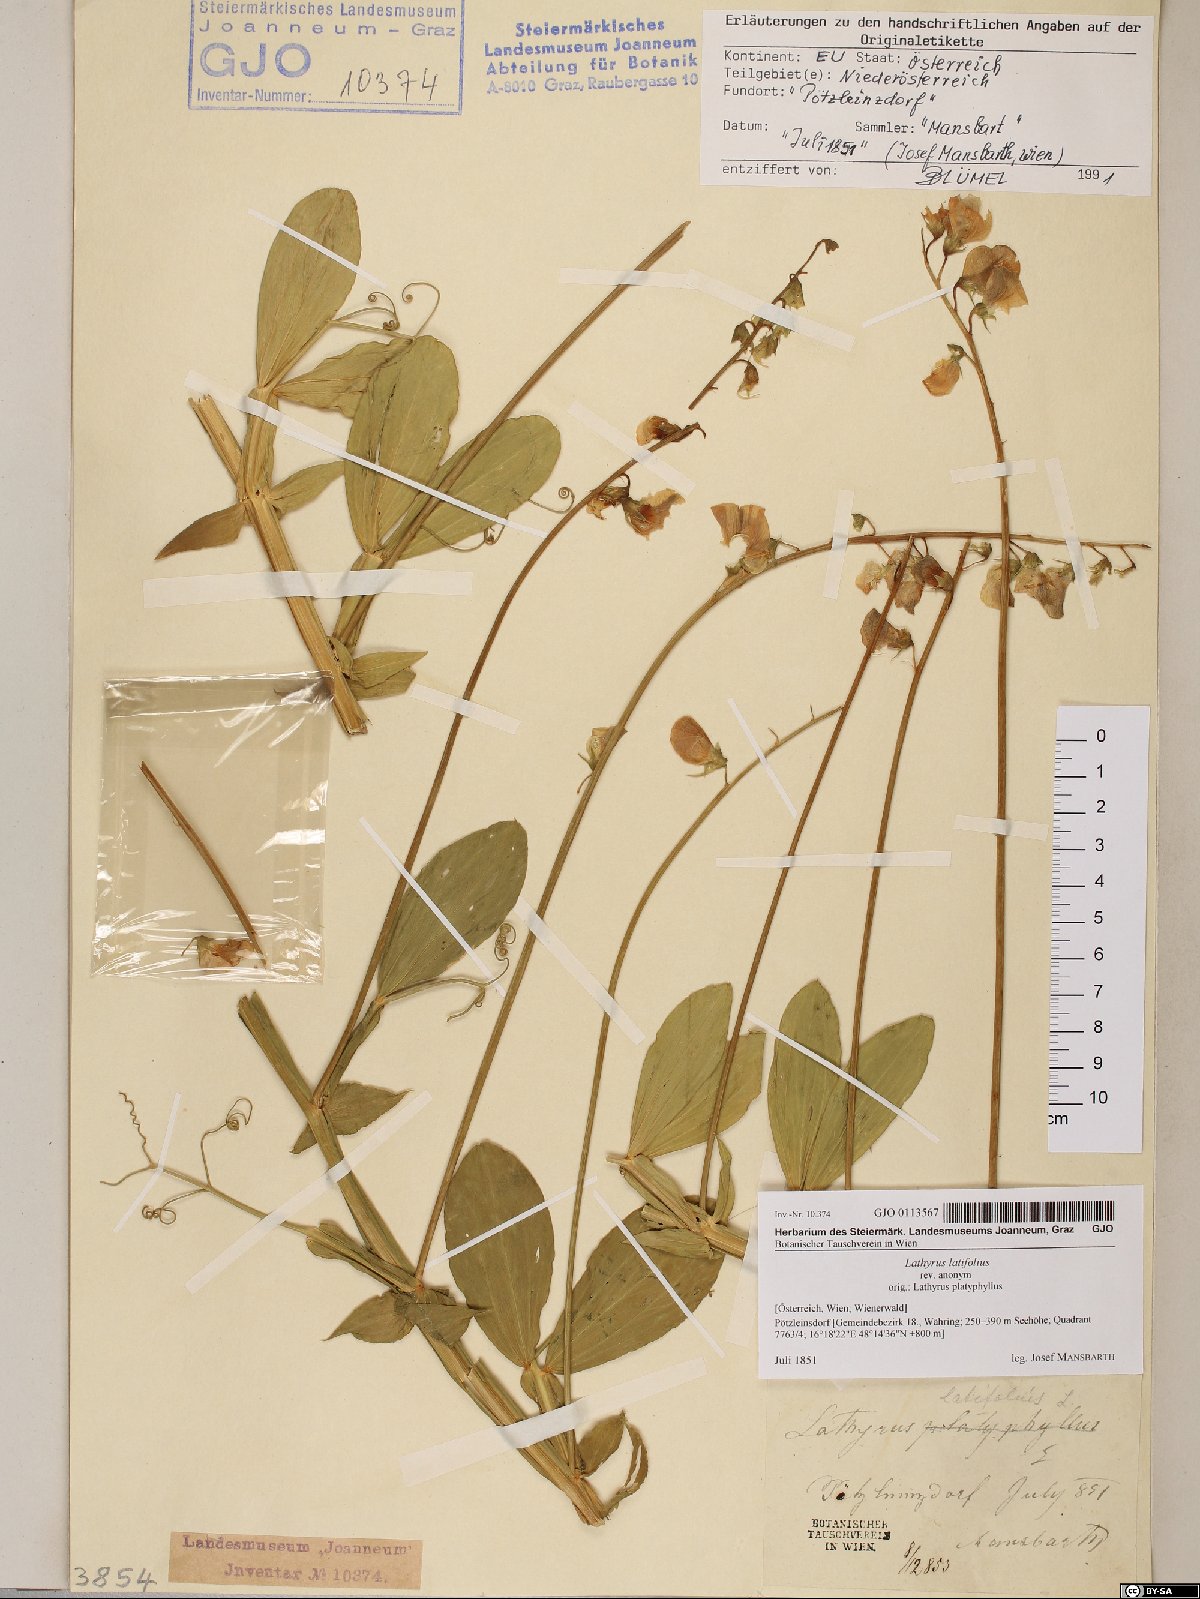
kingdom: Plantae
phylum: Tracheophyta
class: Magnoliopsida
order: Fabales
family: Fabaceae
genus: Lathyrus
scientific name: Lathyrus latifolius
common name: Perennial pea
